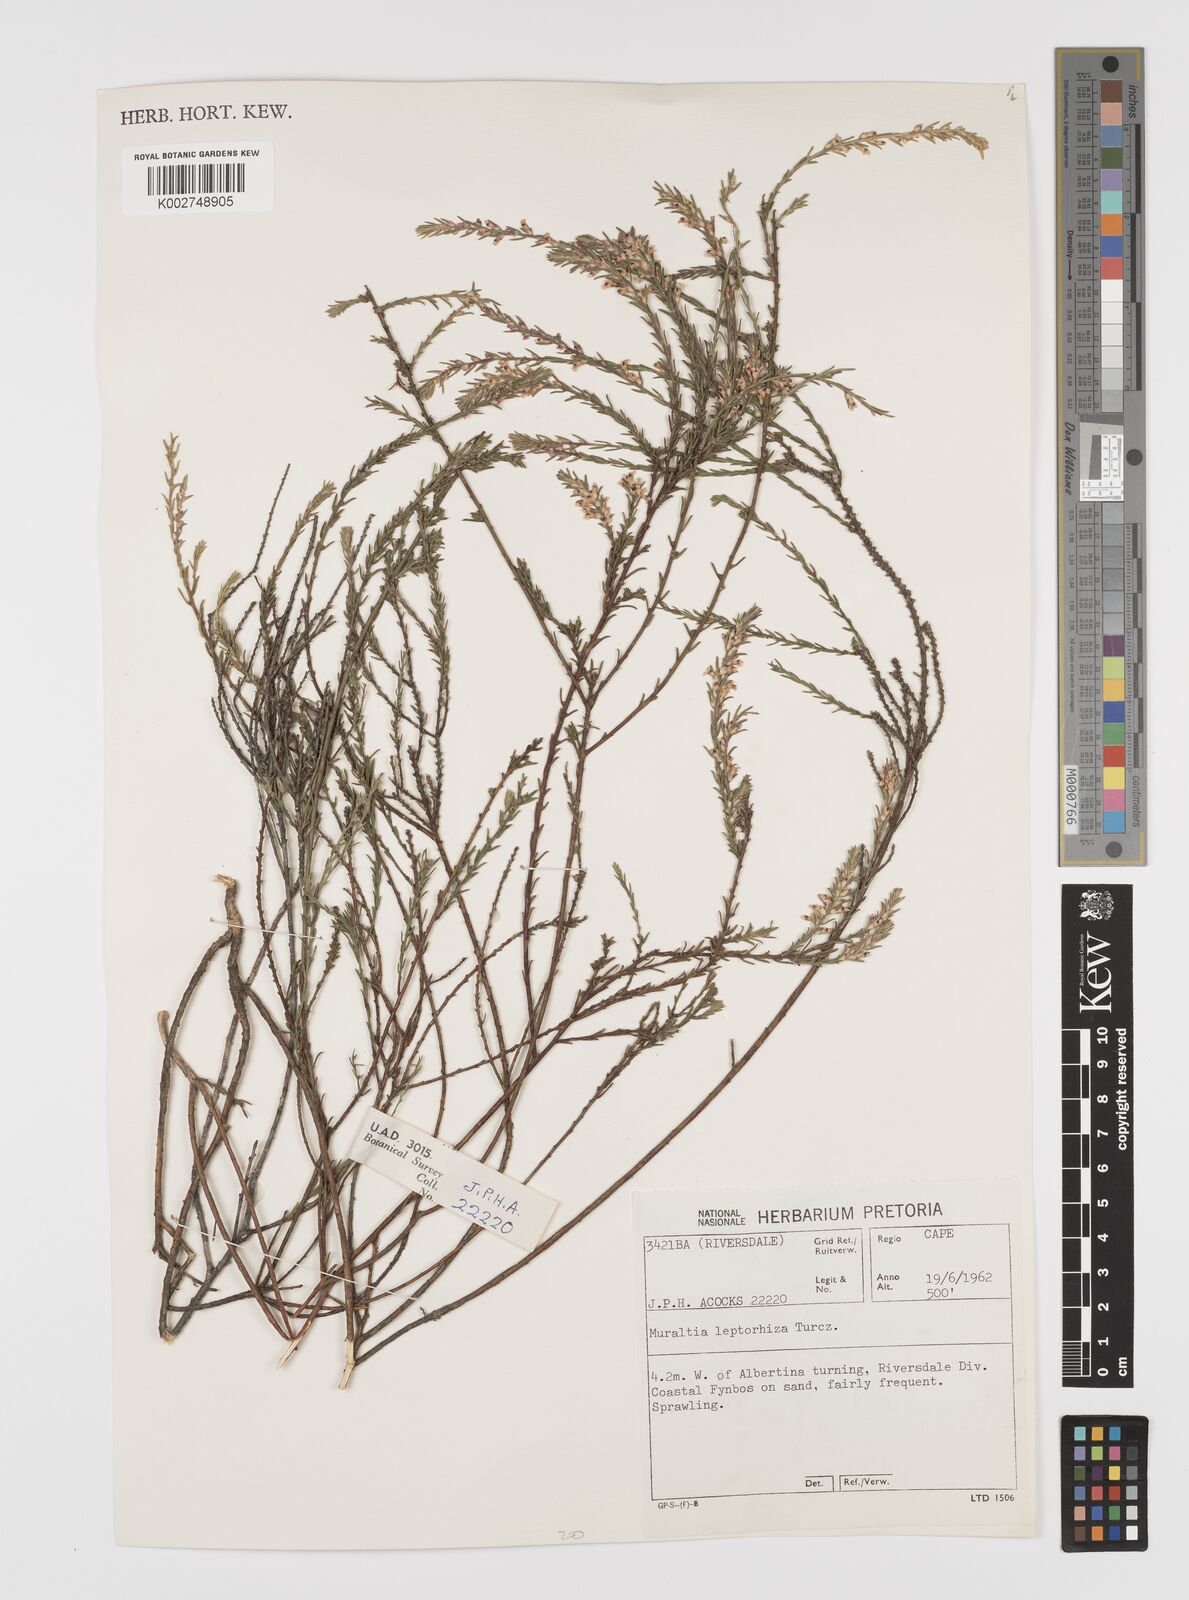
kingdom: Plantae
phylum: Tracheophyta
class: Magnoliopsida
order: Fabales
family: Polygalaceae
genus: Muraltia
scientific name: Muraltia squarrosa
